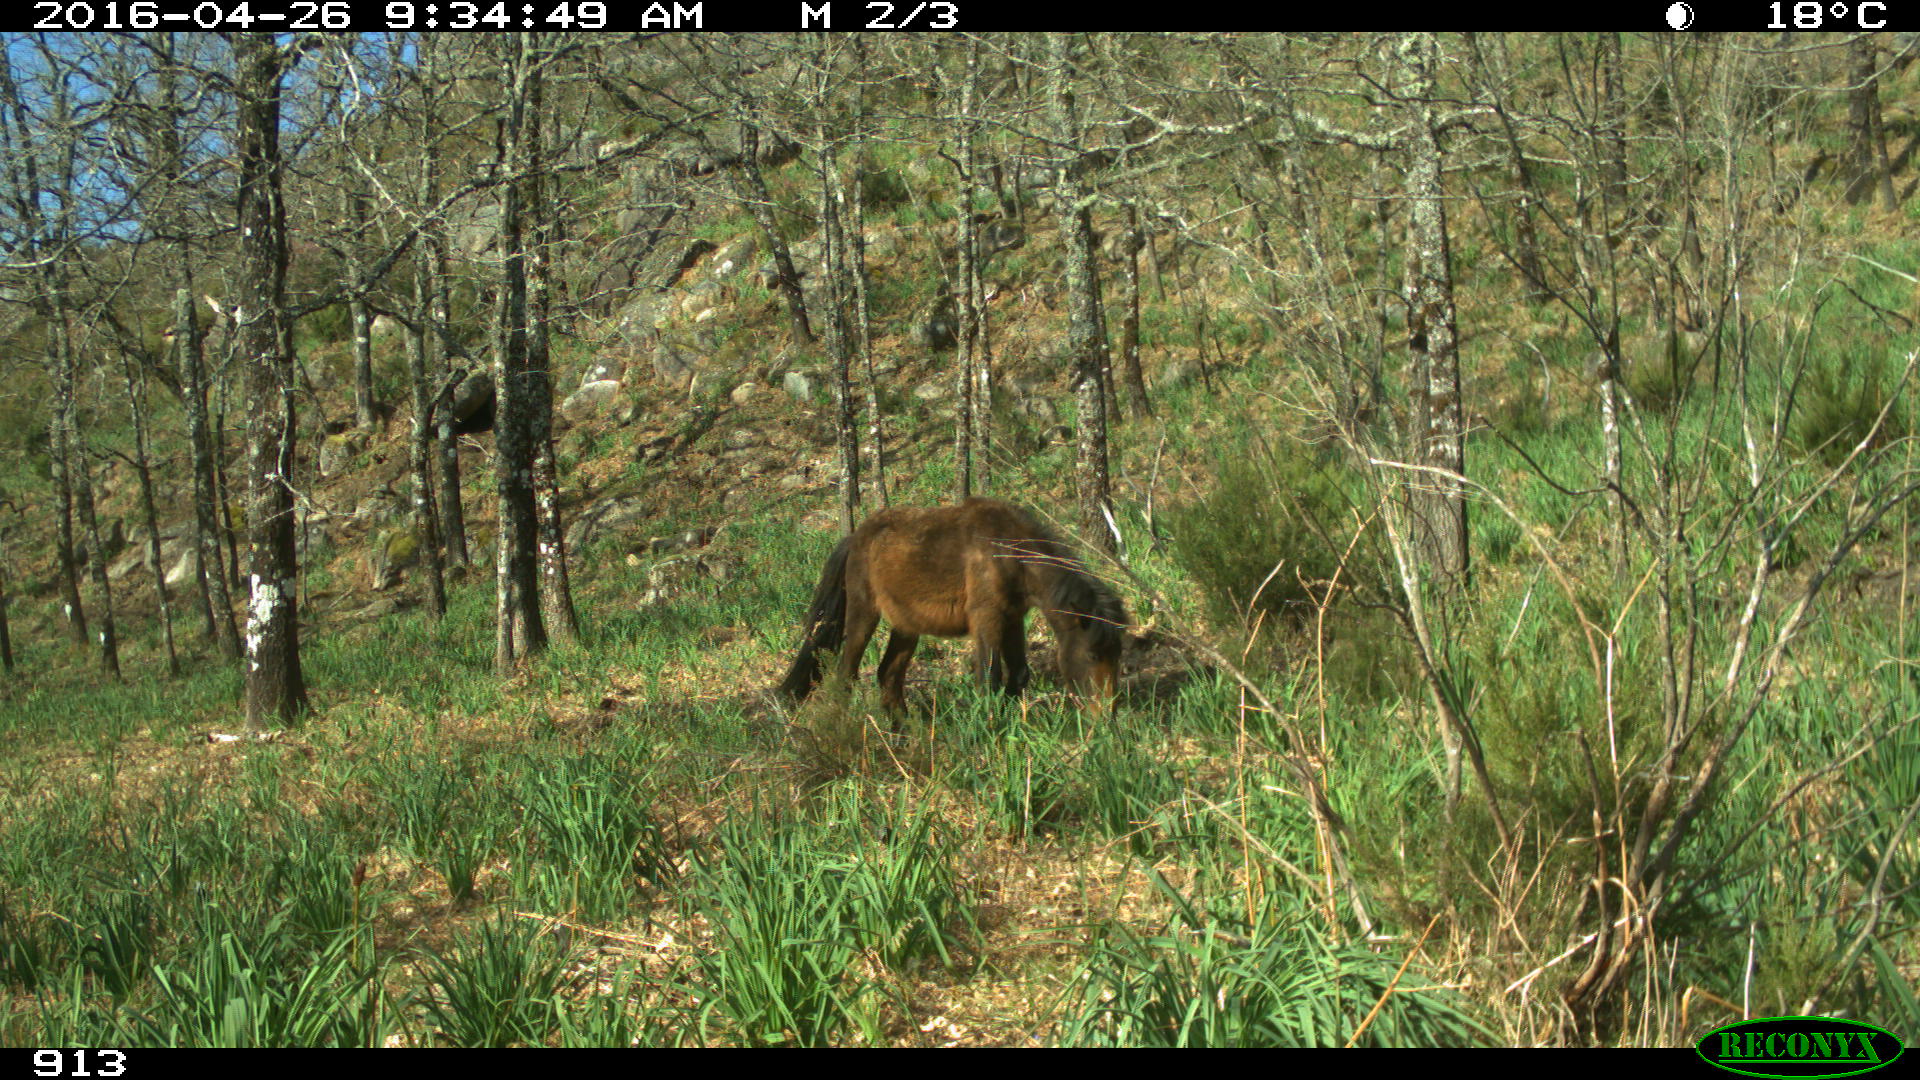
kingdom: Animalia
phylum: Chordata
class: Mammalia
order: Perissodactyla
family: Equidae
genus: Equus
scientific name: Equus caballus
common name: Horse
